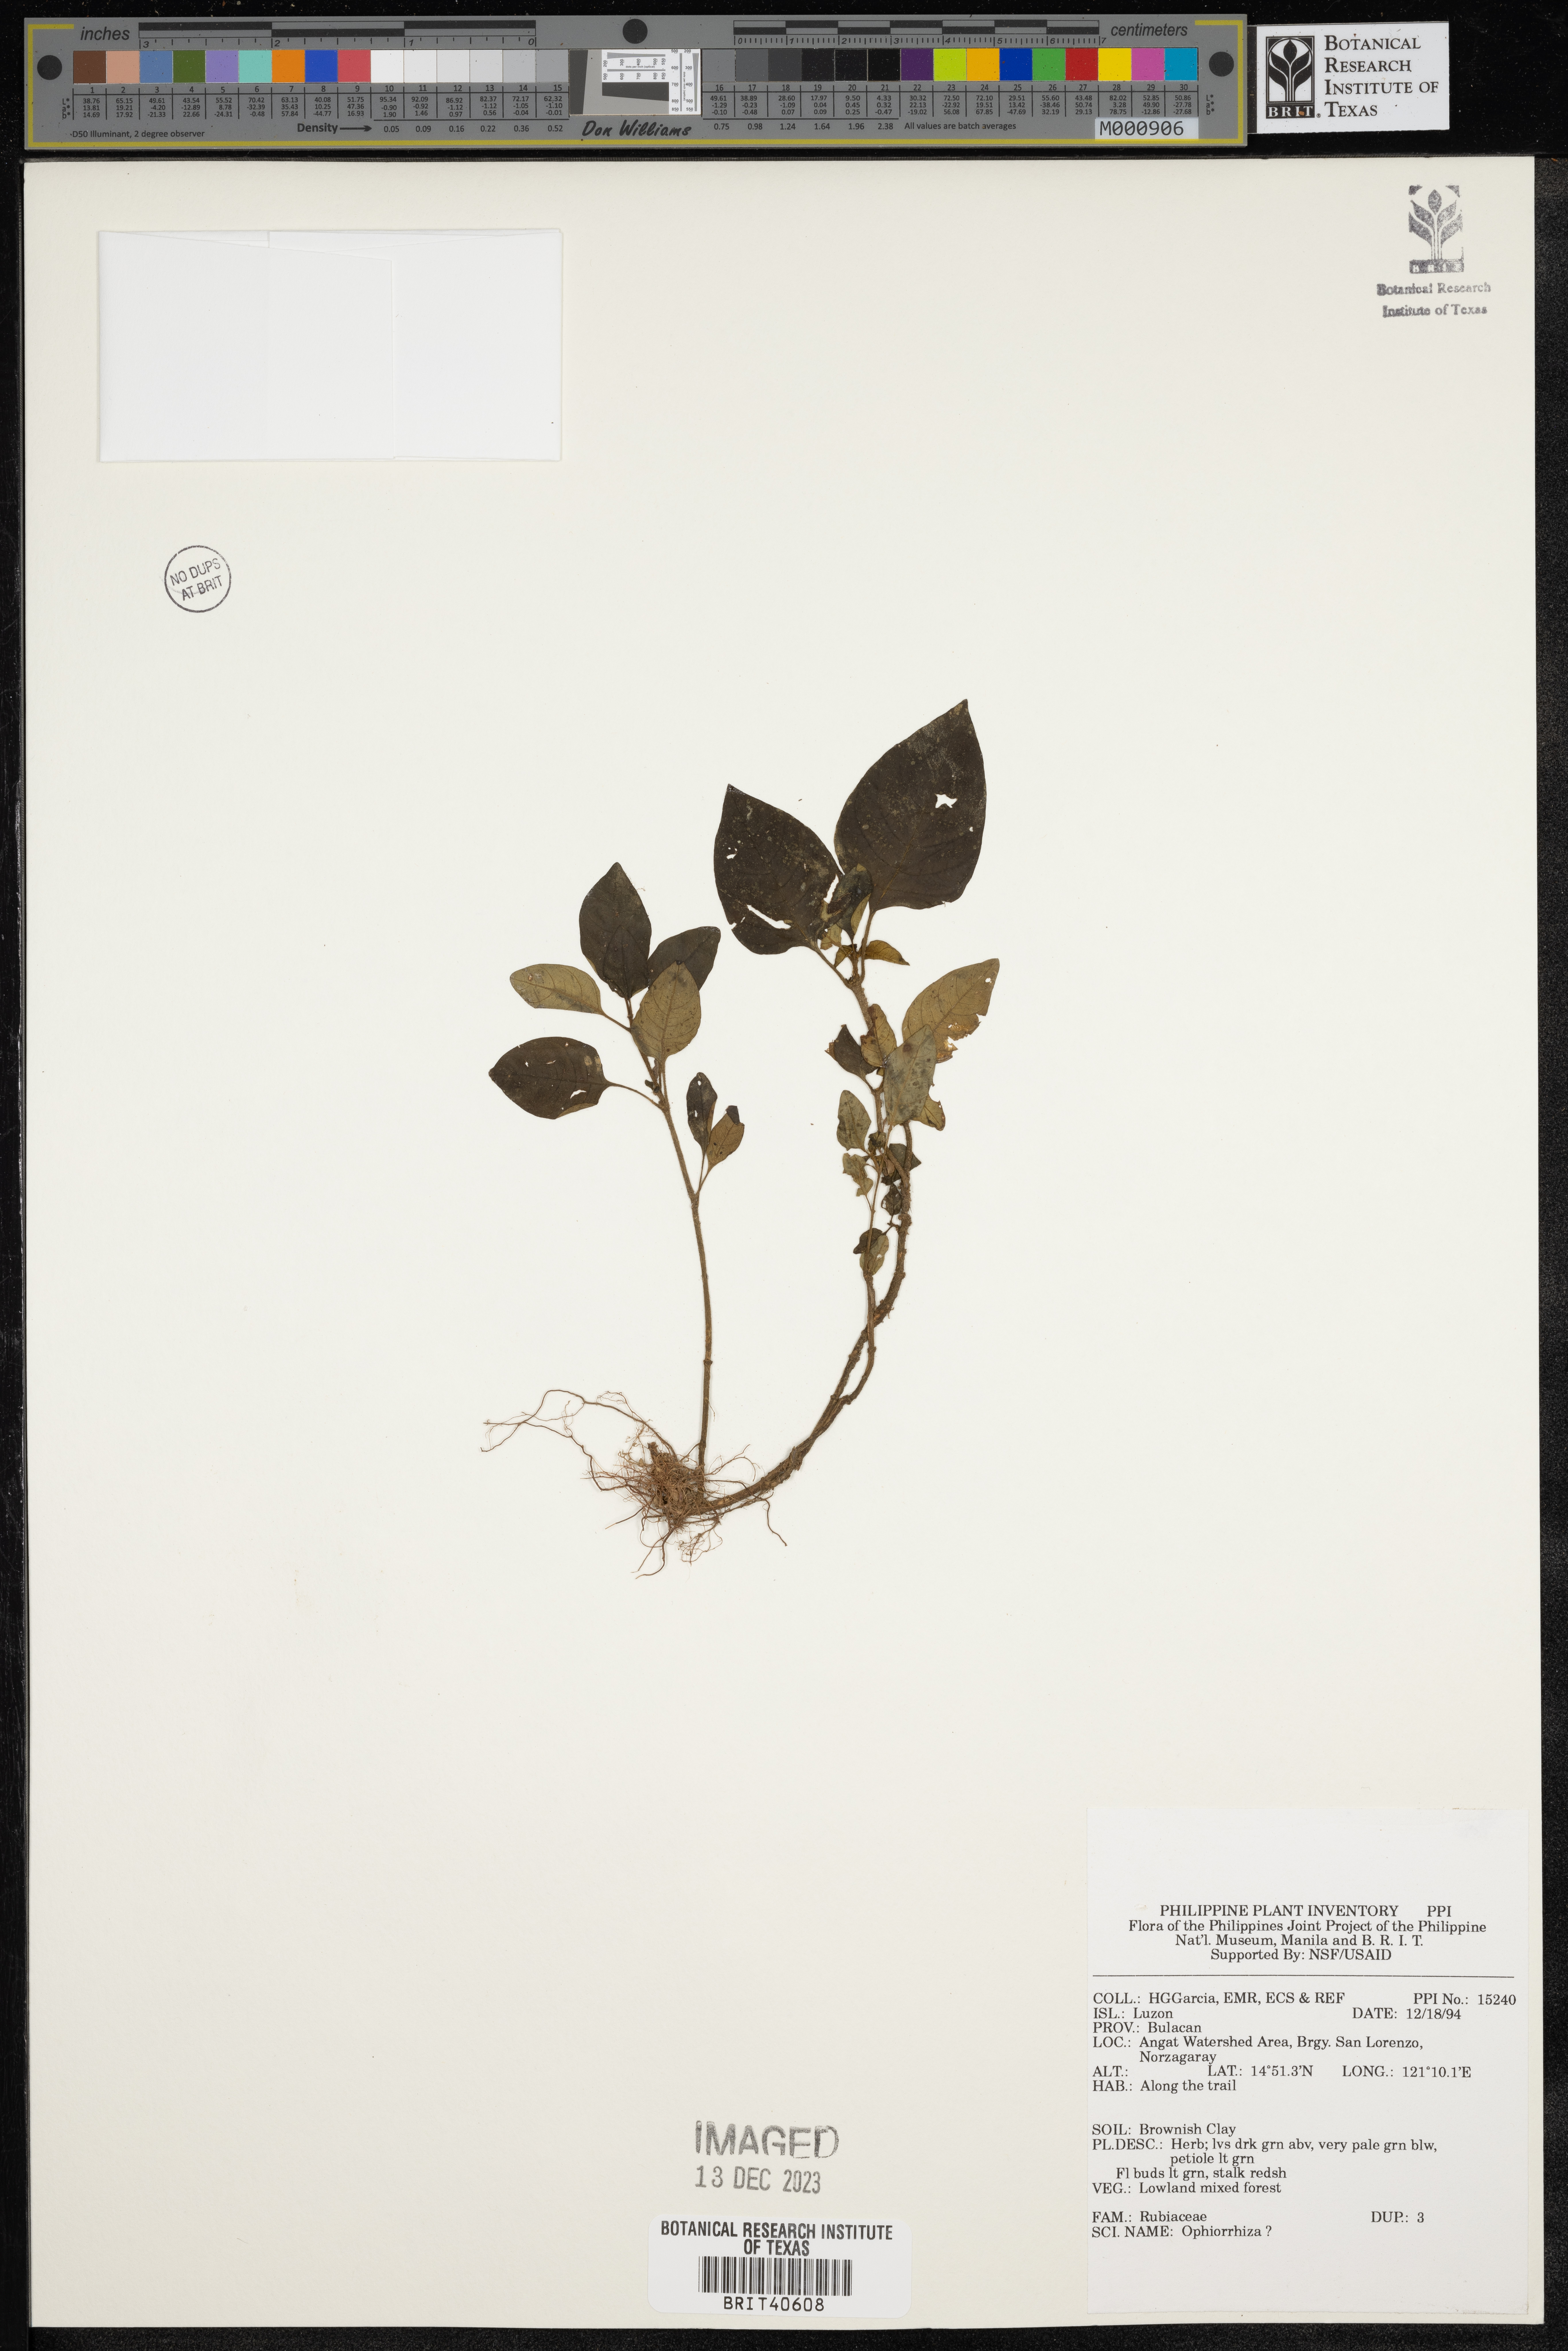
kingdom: Plantae
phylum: Tracheophyta
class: Magnoliopsida
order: Gentianales
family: Rubiaceae
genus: Ophiorrhiza
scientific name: Ophiorrhiza
